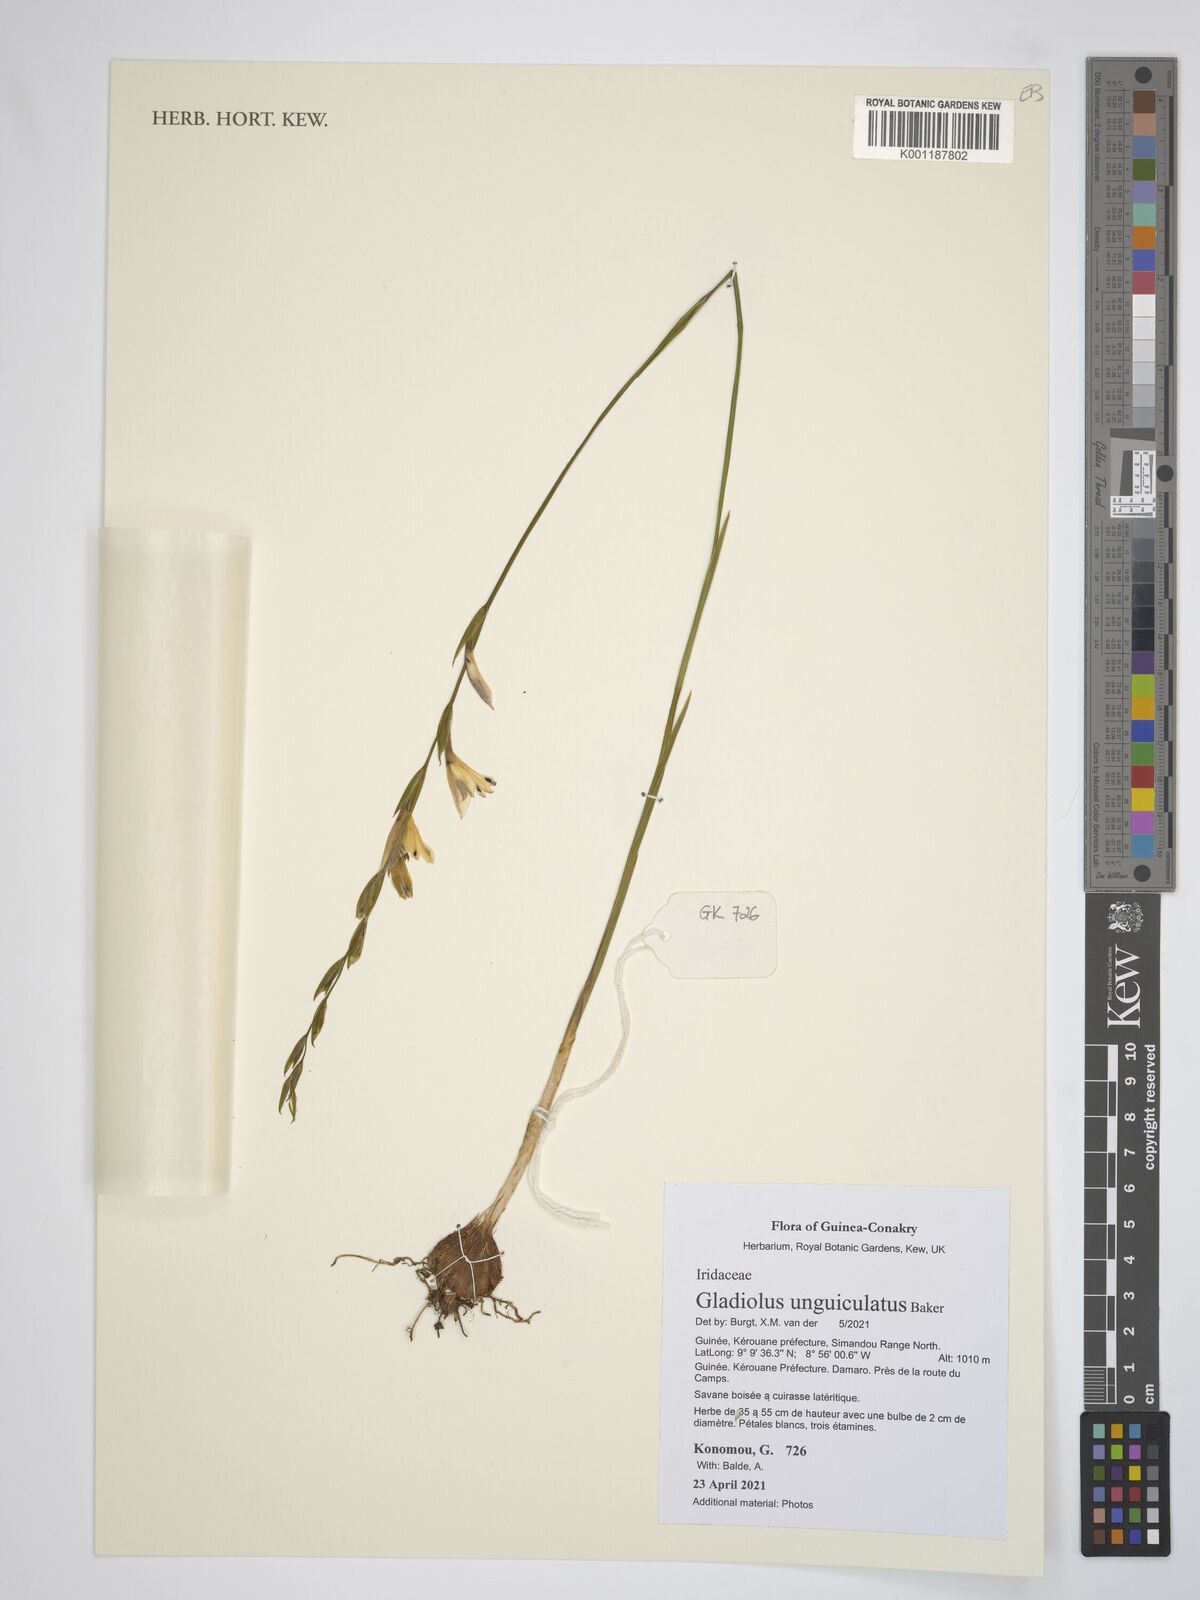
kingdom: Plantae
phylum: Tracheophyta
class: Liliopsida
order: Asparagales
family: Iridaceae
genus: Gladiolus
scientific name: Gladiolus unguiculatus
